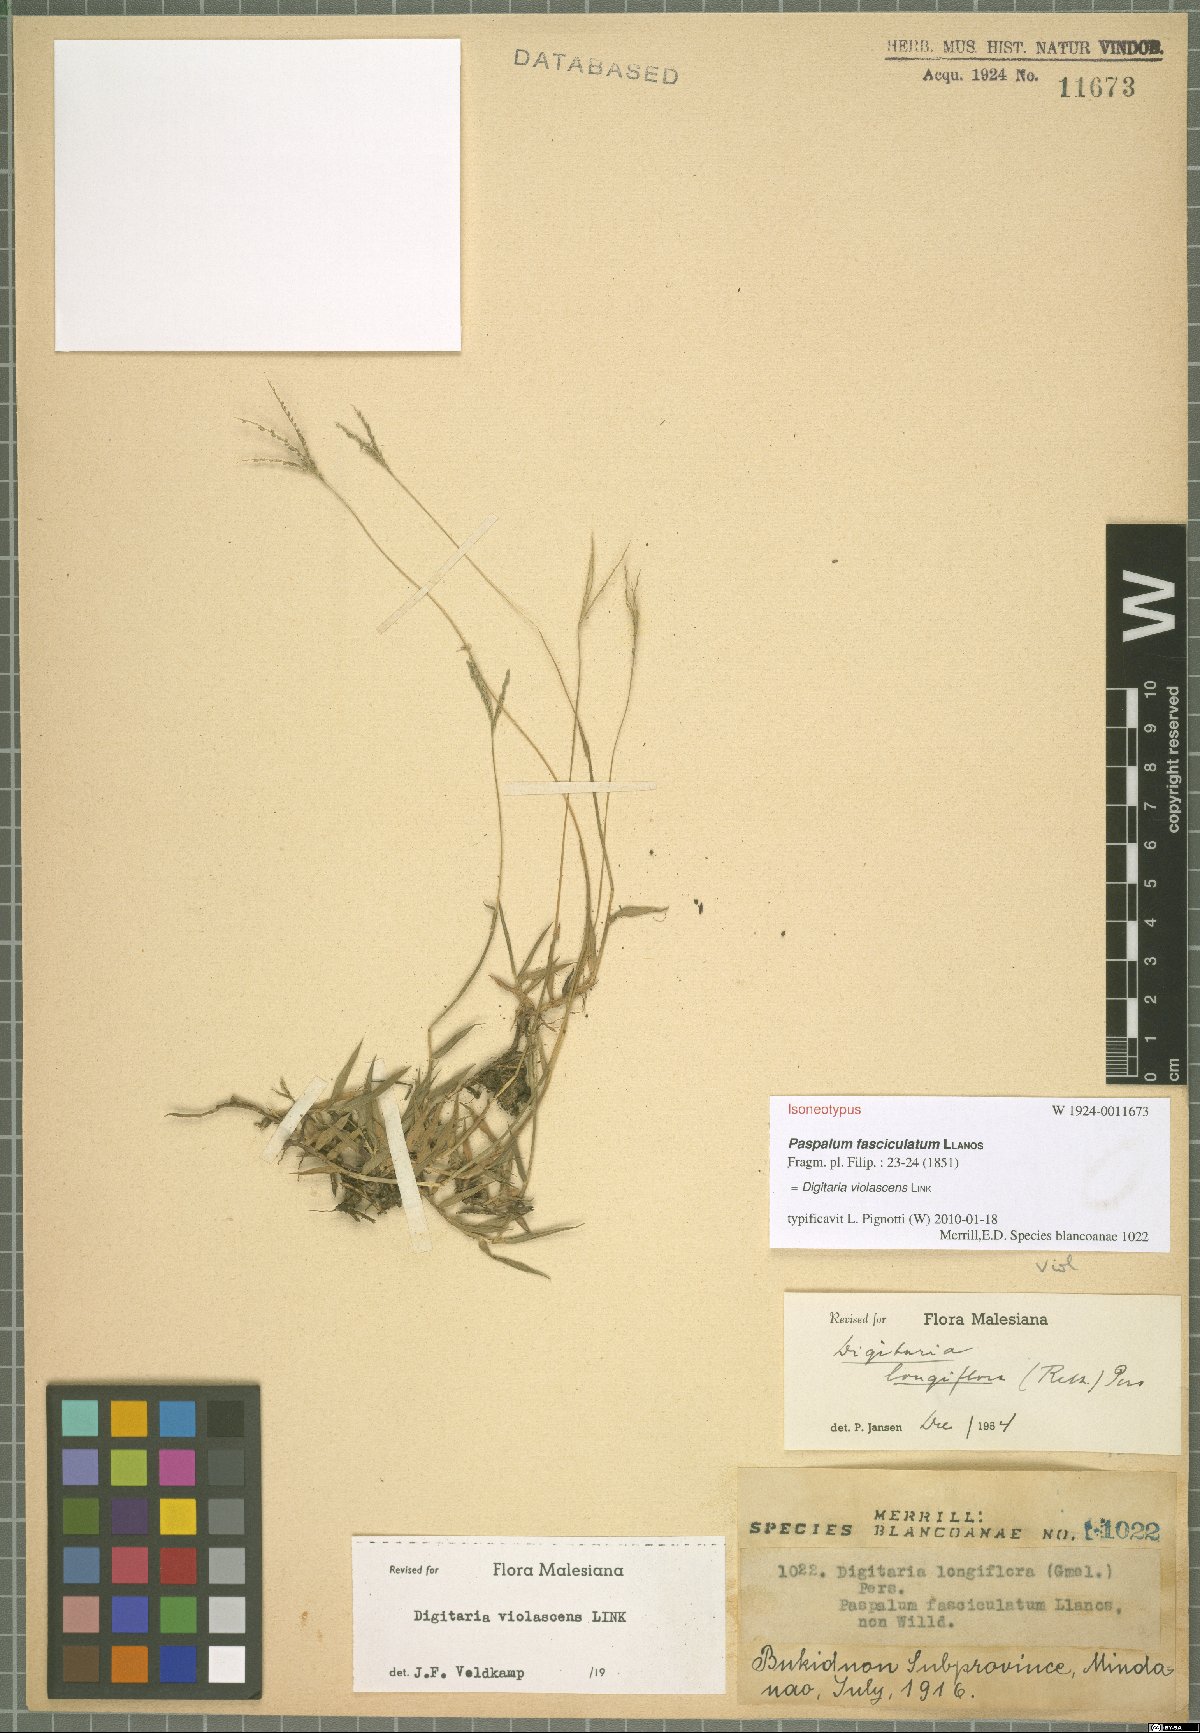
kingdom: Plantae
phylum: Tracheophyta
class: Liliopsida
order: Poales
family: Poaceae
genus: Digitaria
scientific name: Digitaria violascens
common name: Violet crabgrass
